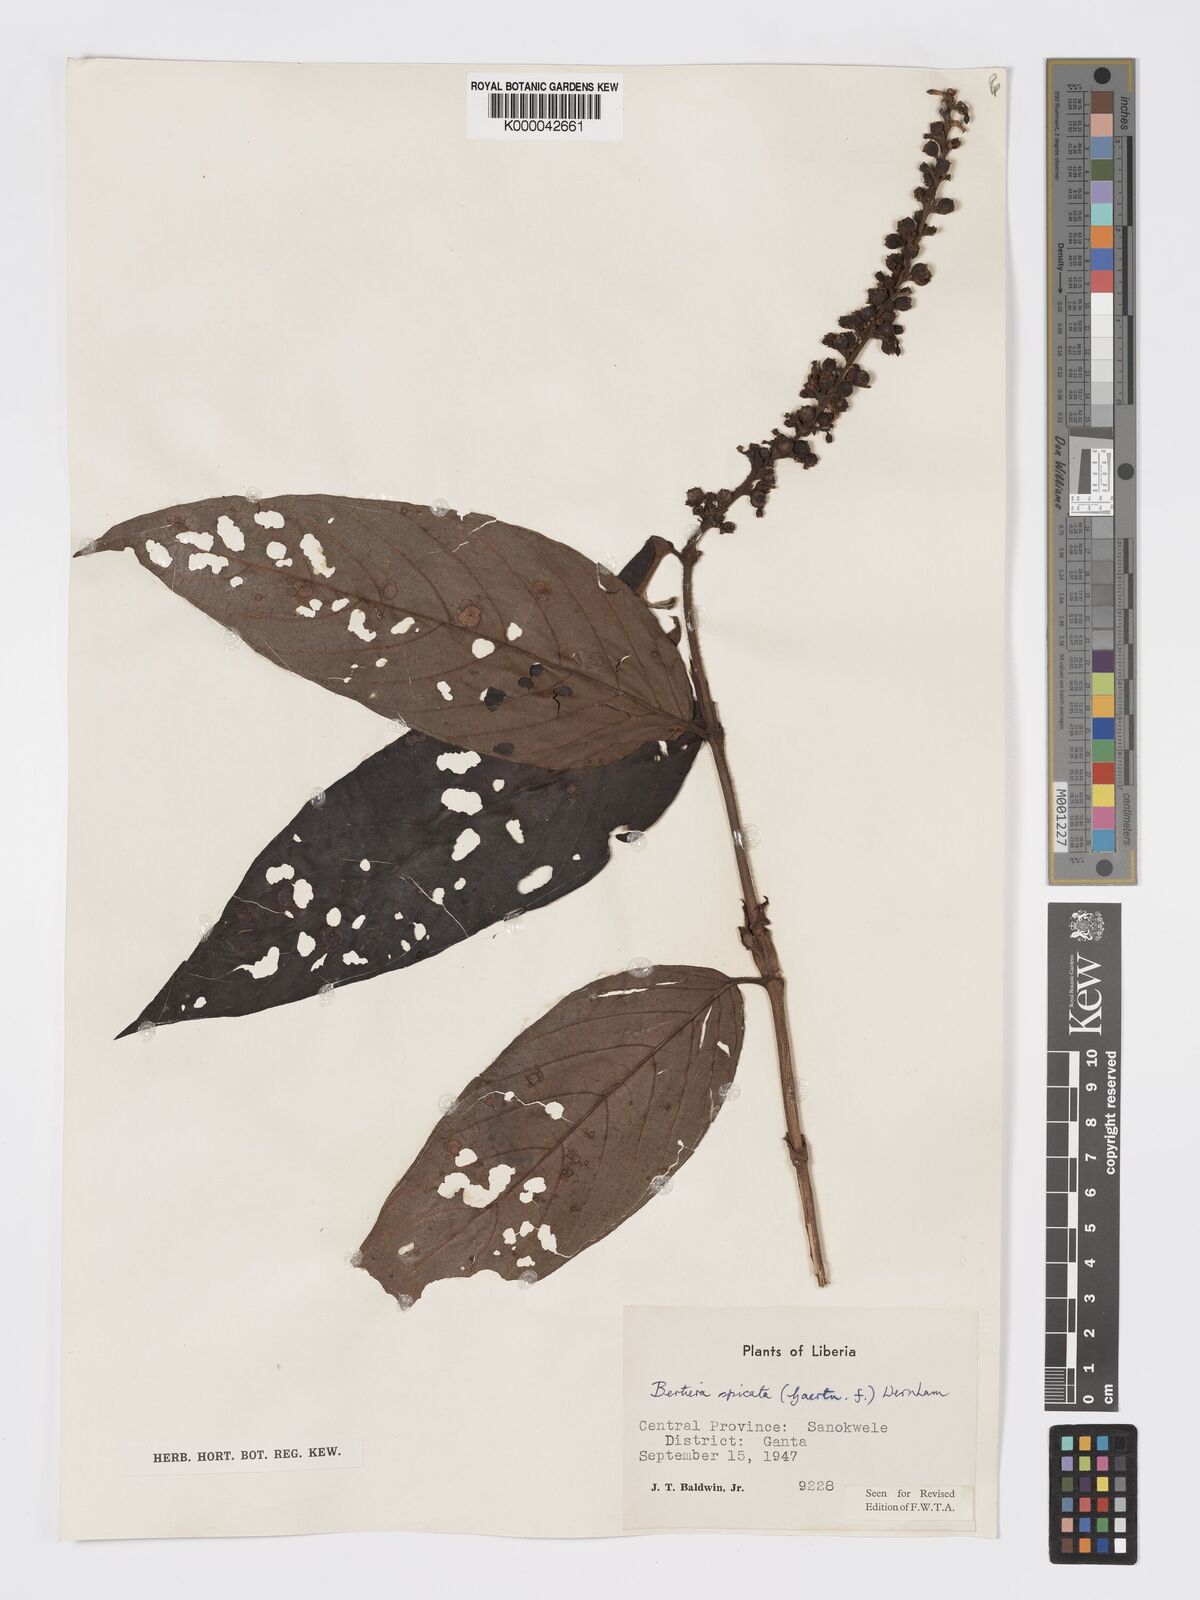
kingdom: Plantae
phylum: Tracheophyta
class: Magnoliopsida
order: Gentianales
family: Rubiaceae
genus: Bertiera
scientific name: Bertiera
